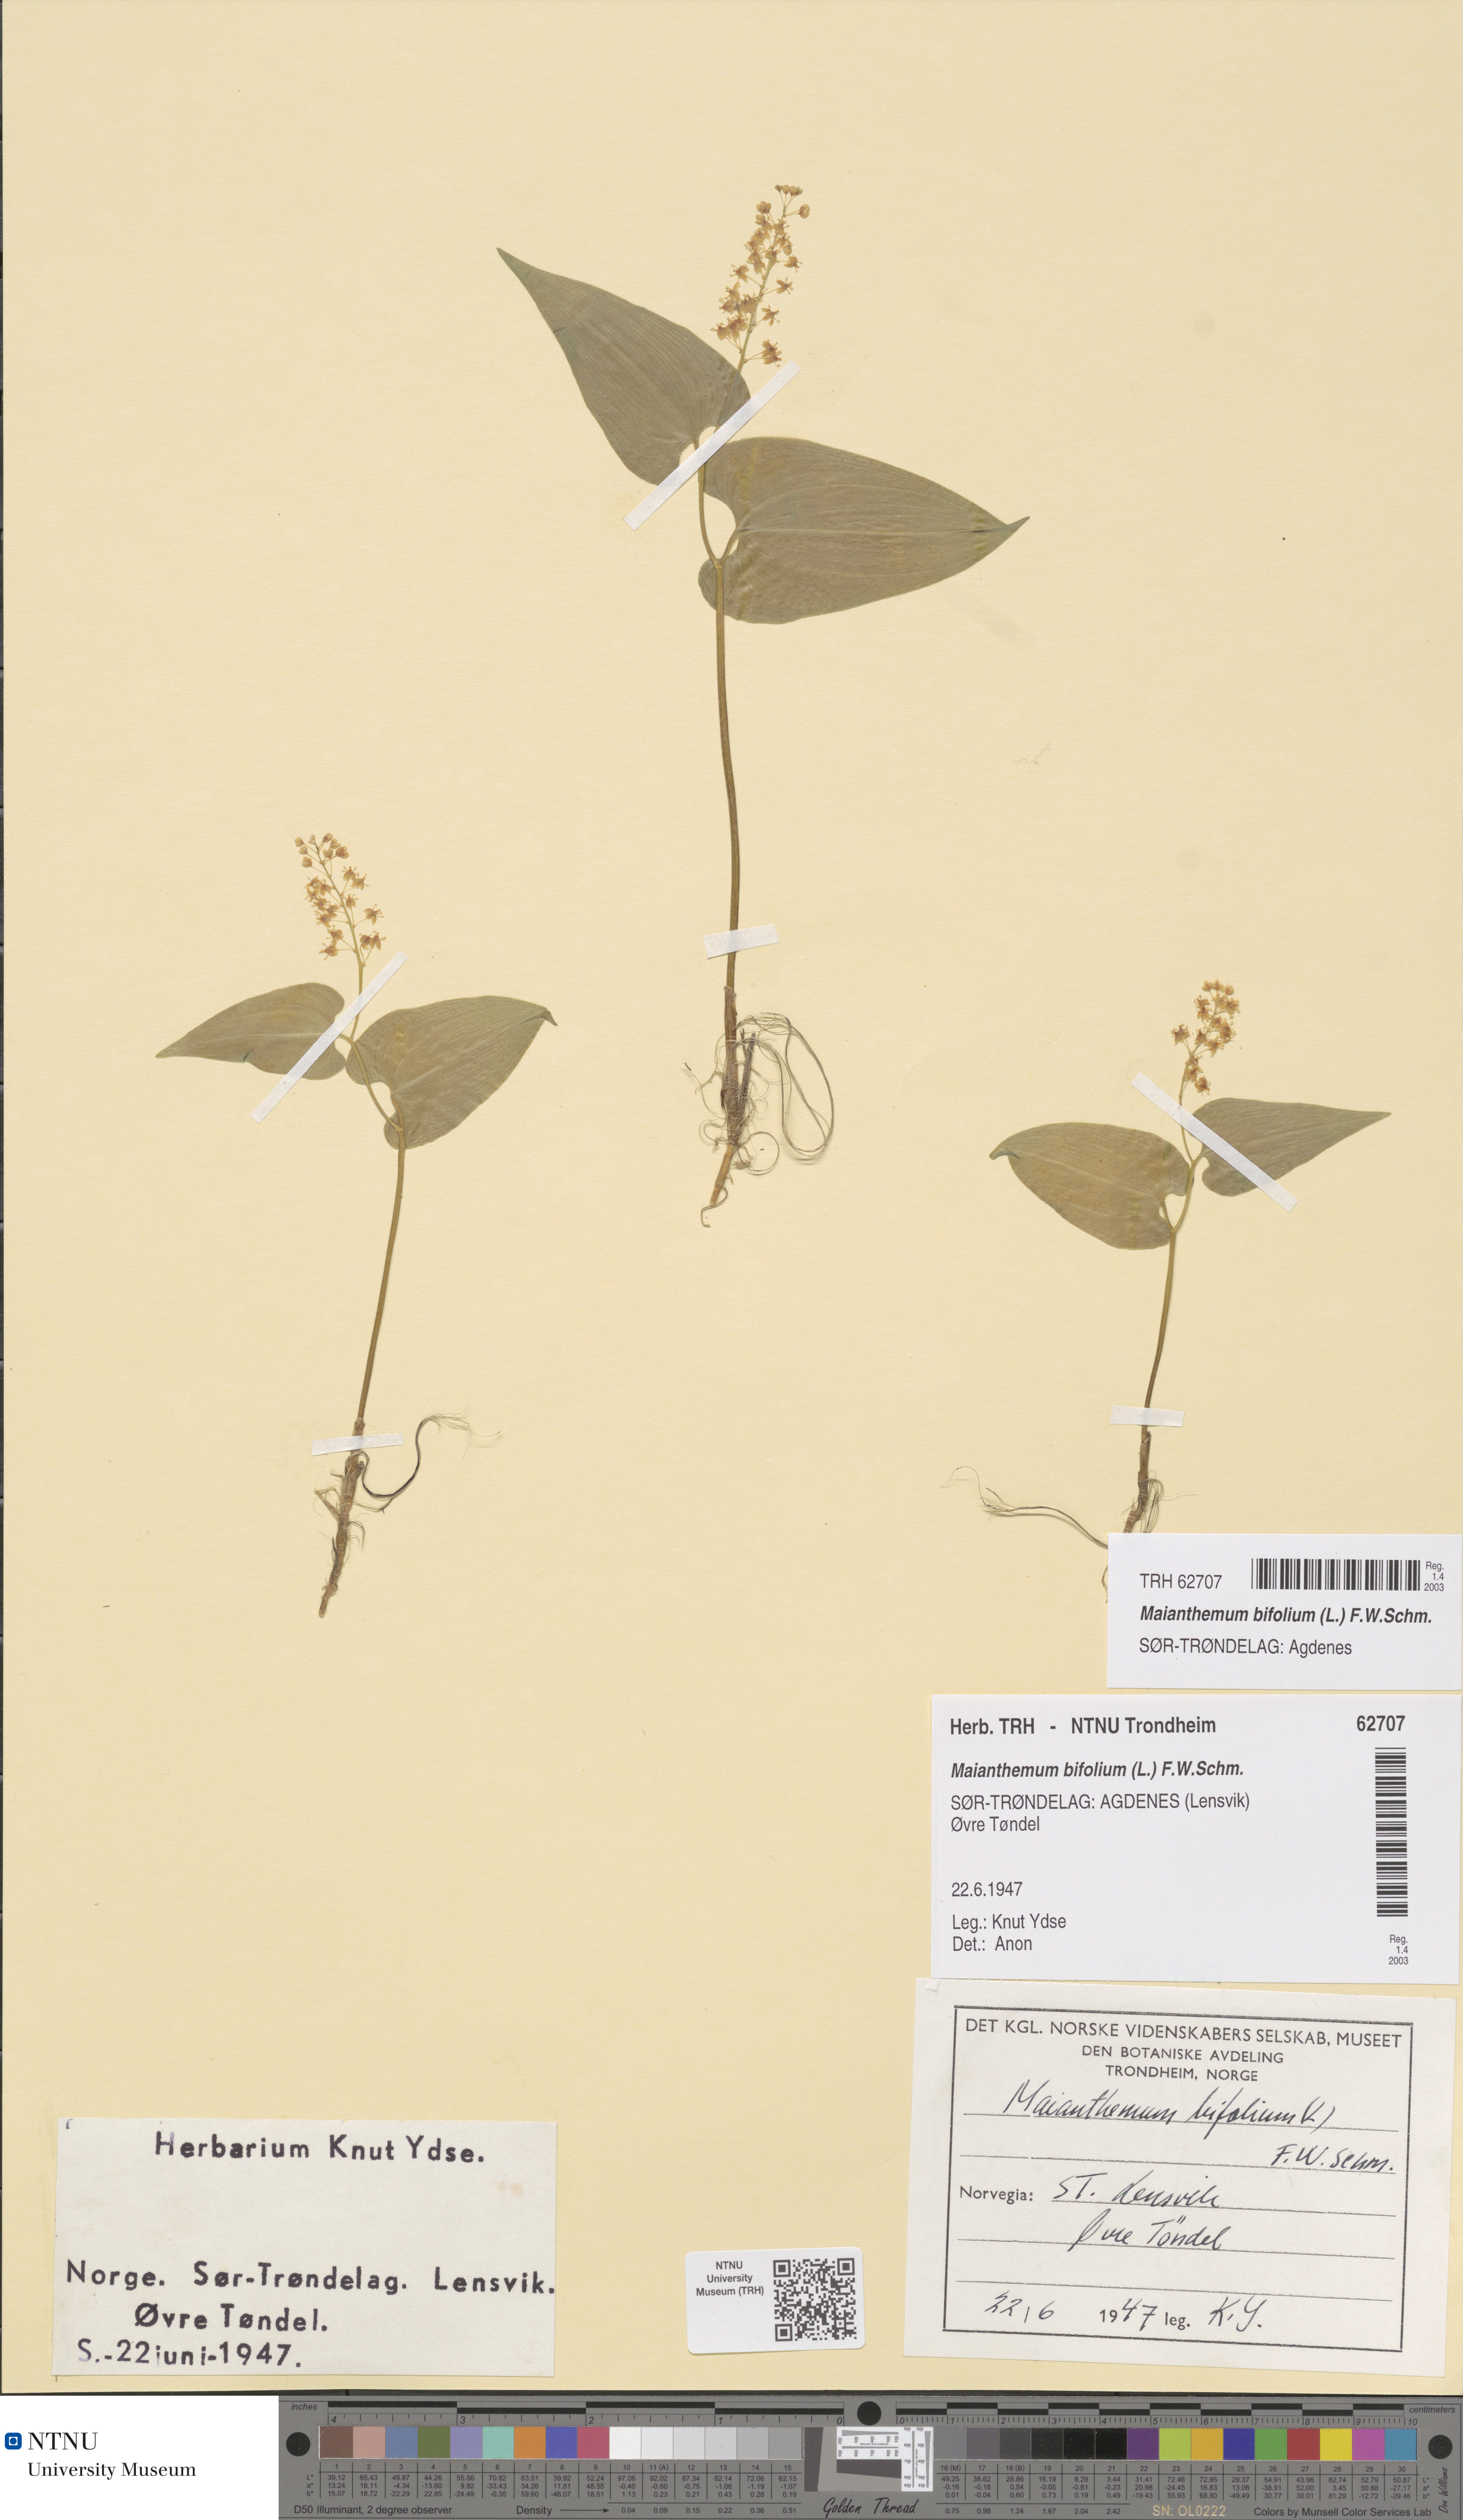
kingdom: Plantae
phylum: Tracheophyta
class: Liliopsida
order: Asparagales
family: Asparagaceae
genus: Maianthemum
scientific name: Maianthemum bifolium
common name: May lily
